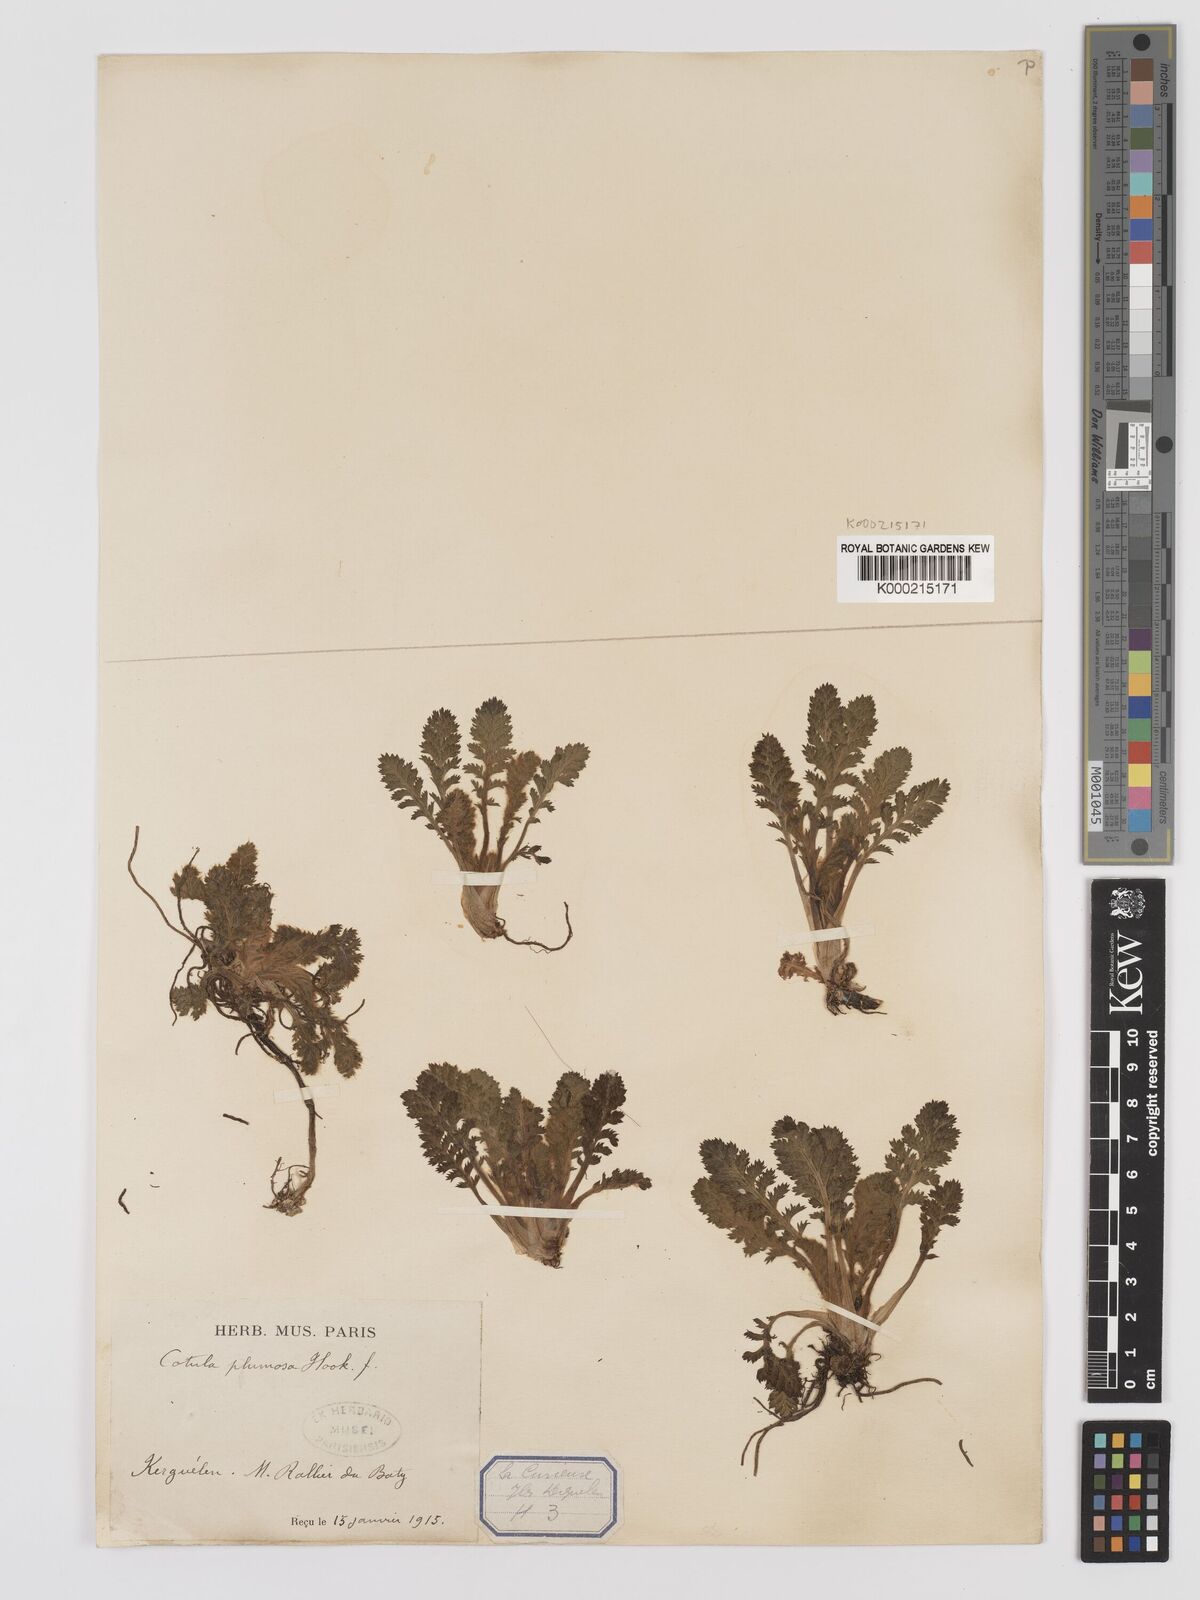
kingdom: Plantae
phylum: Tracheophyta
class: Magnoliopsida
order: Asterales
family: Asteraceae
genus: Leptinella
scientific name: Leptinella
